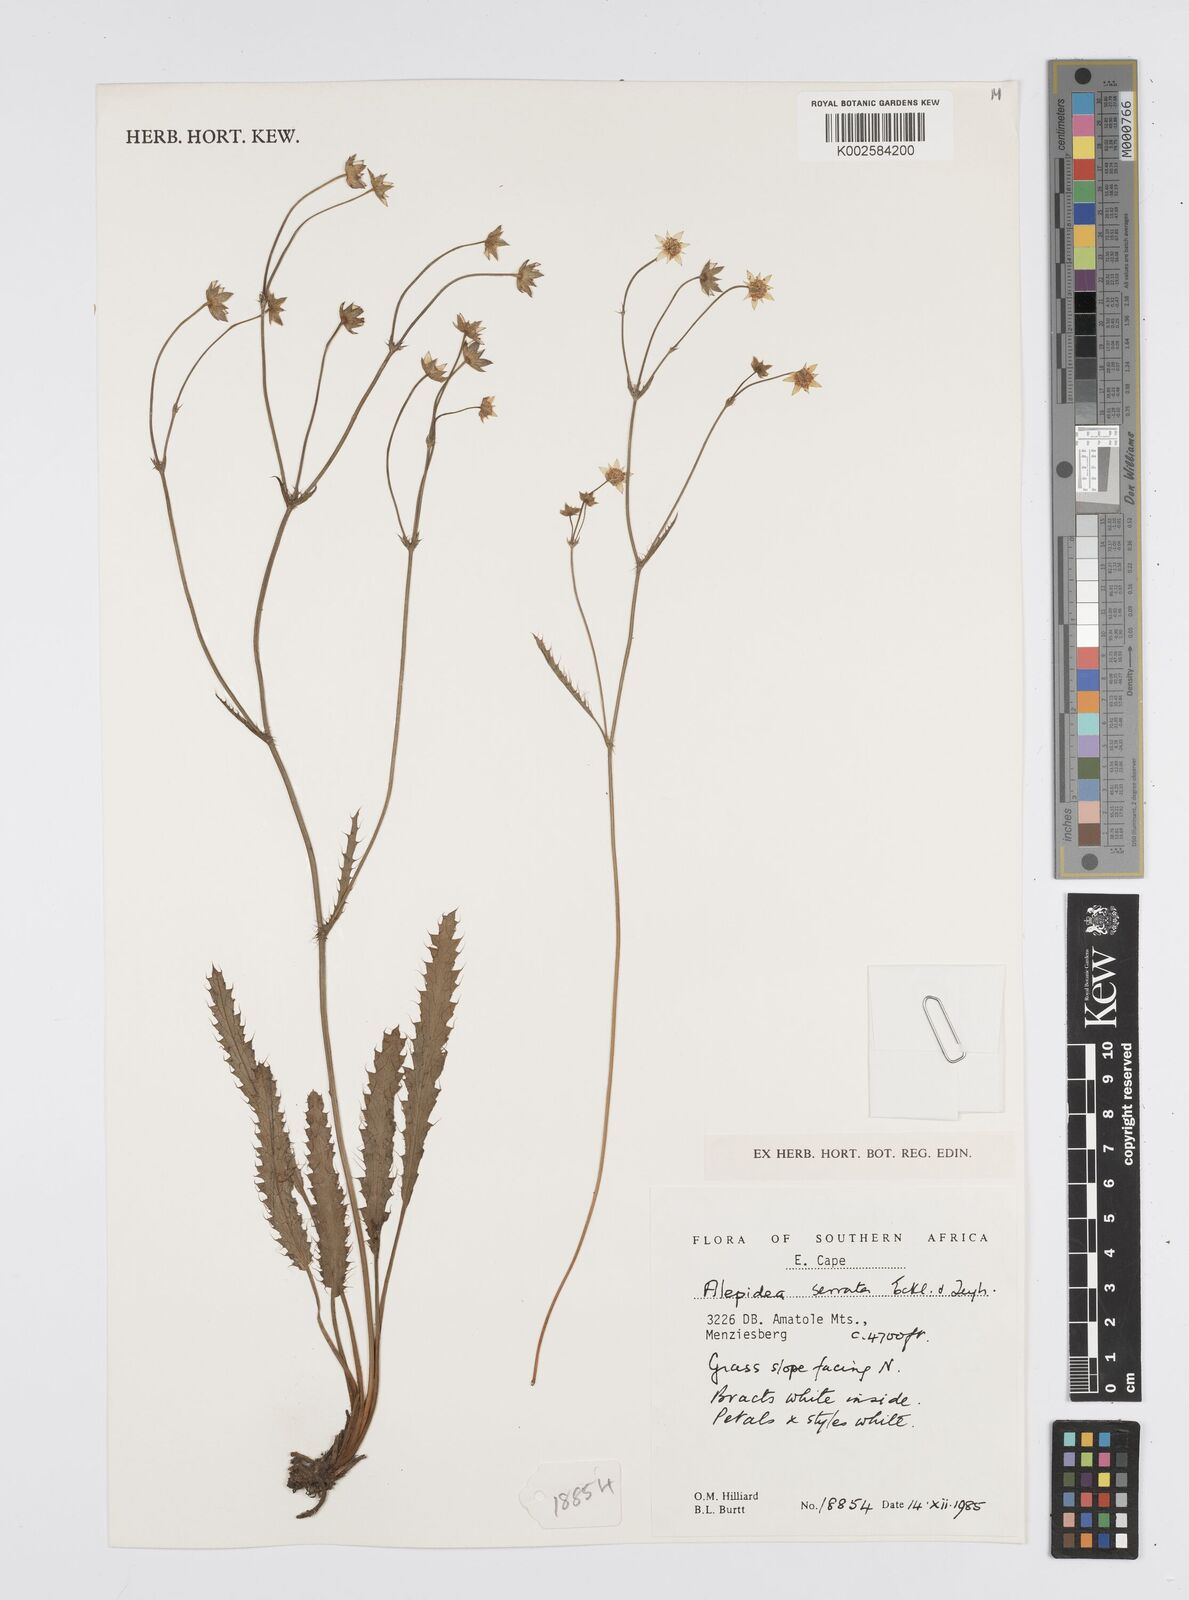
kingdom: Plantae
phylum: Tracheophyta
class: Magnoliopsida
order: Apiales
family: Apiaceae
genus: Alepidea
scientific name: Alepidea serrata
